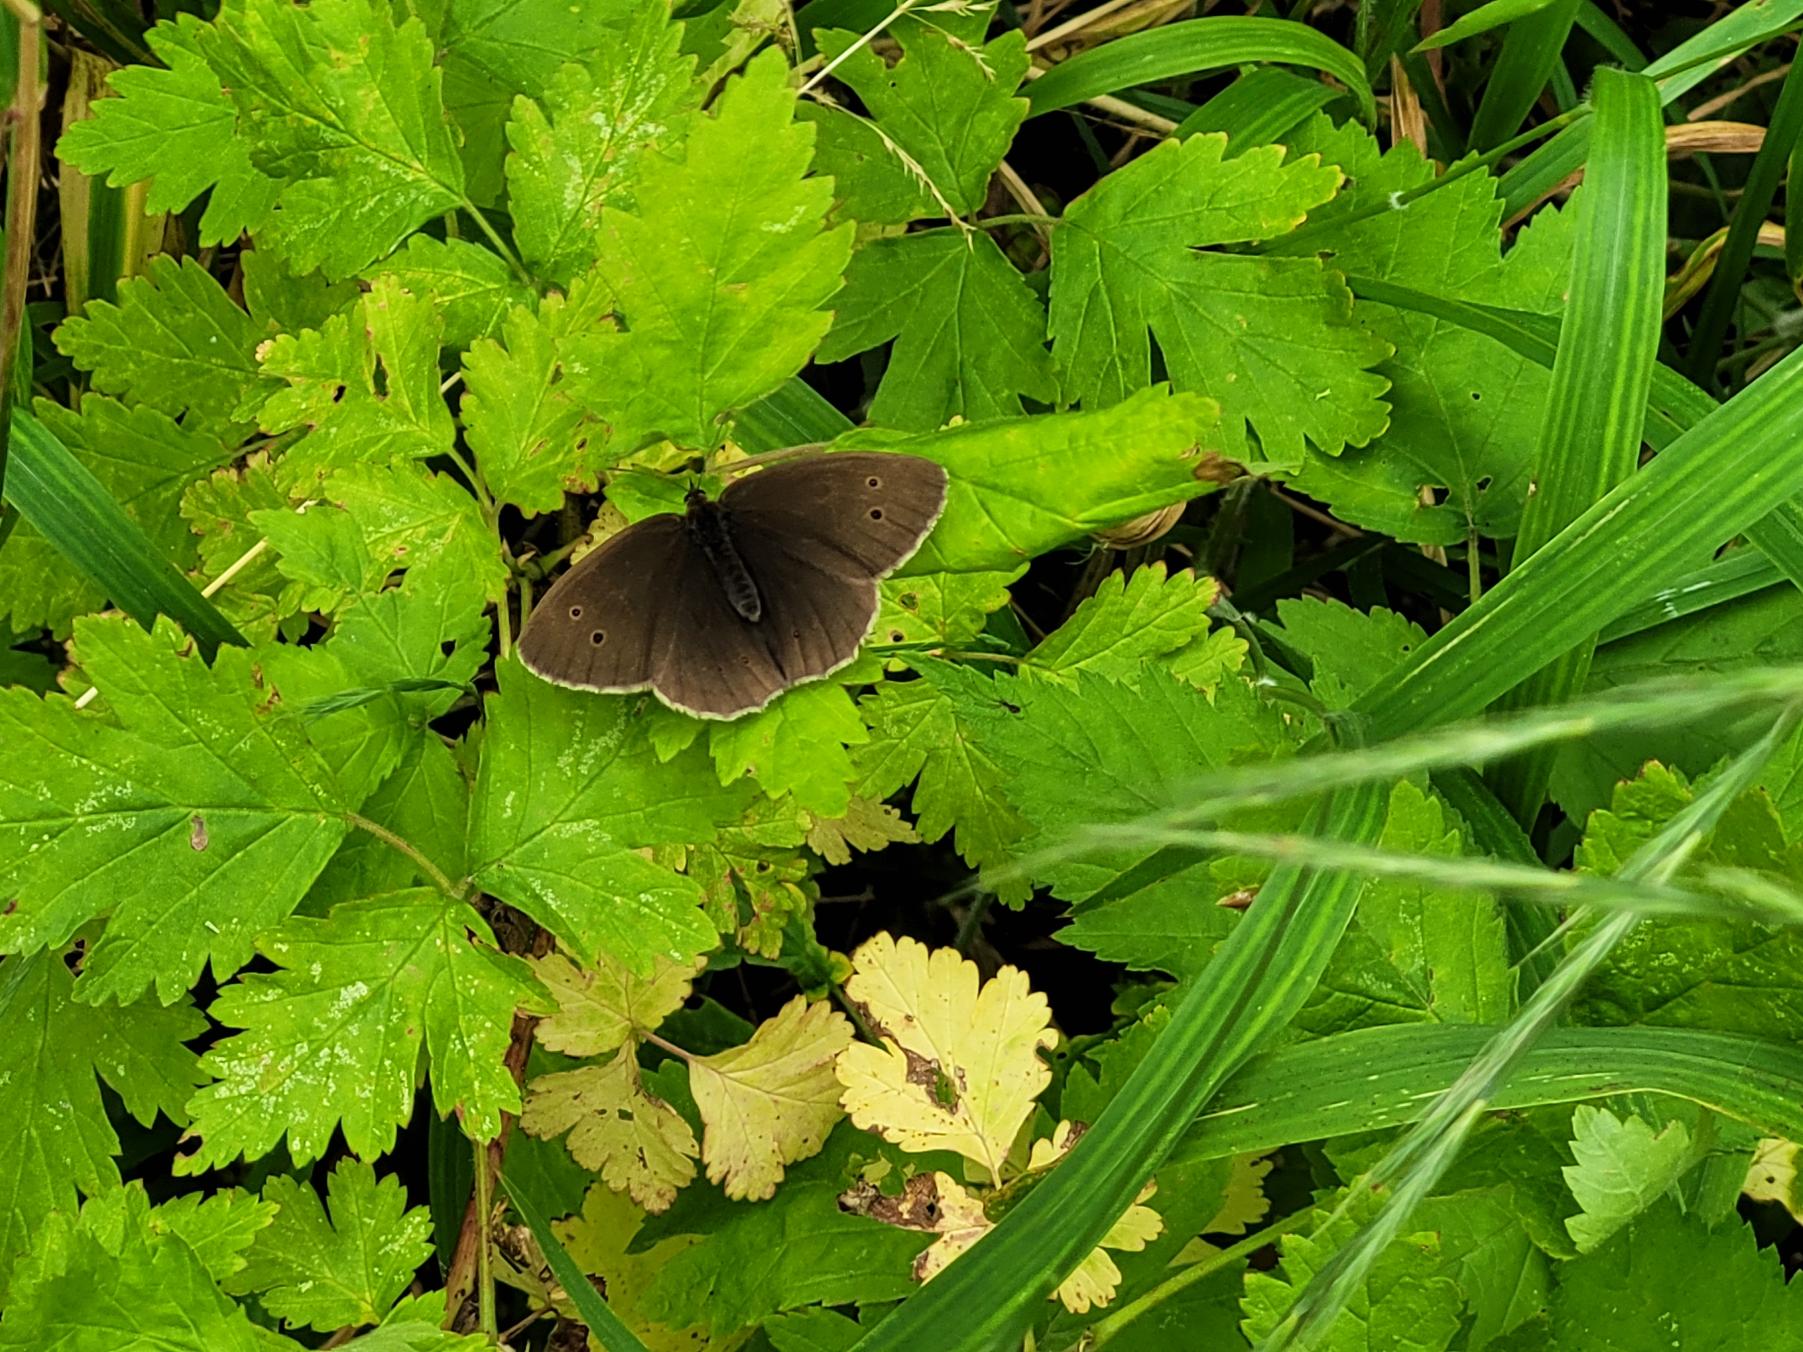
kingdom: Animalia
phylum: Arthropoda
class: Insecta
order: Lepidoptera
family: Nymphalidae
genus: Aphantopus
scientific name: Aphantopus hyperantus
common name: Engrandøje
